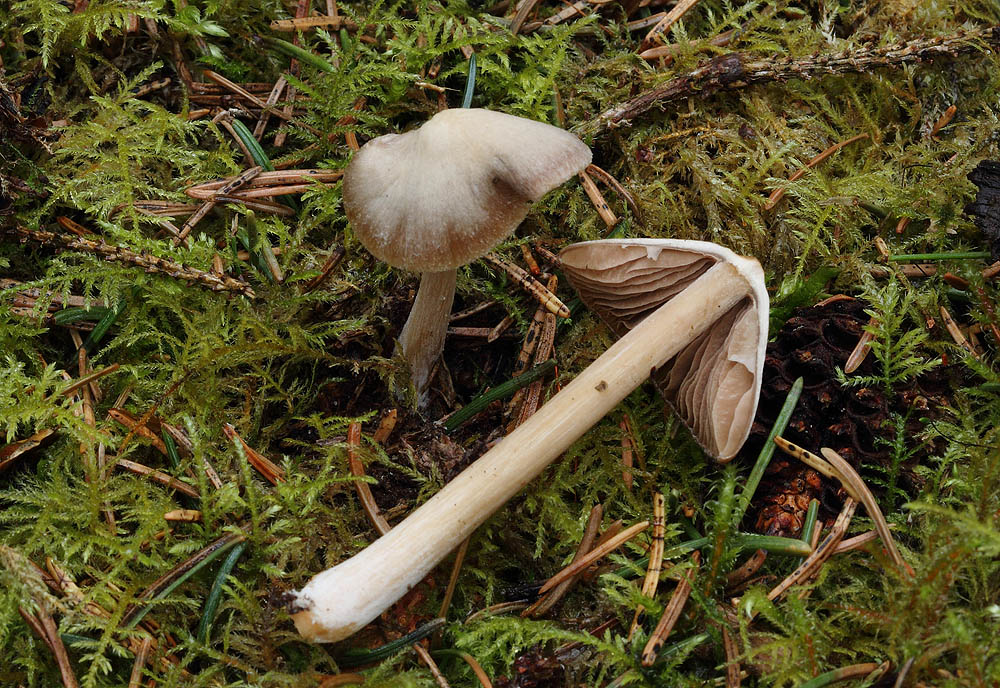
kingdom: Fungi
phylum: Basidiomycota
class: Agaricomycetes
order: Agaricales
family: Entolomataceae
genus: Entoloma
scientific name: Entoloma pallescens
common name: tidlig rødblad
